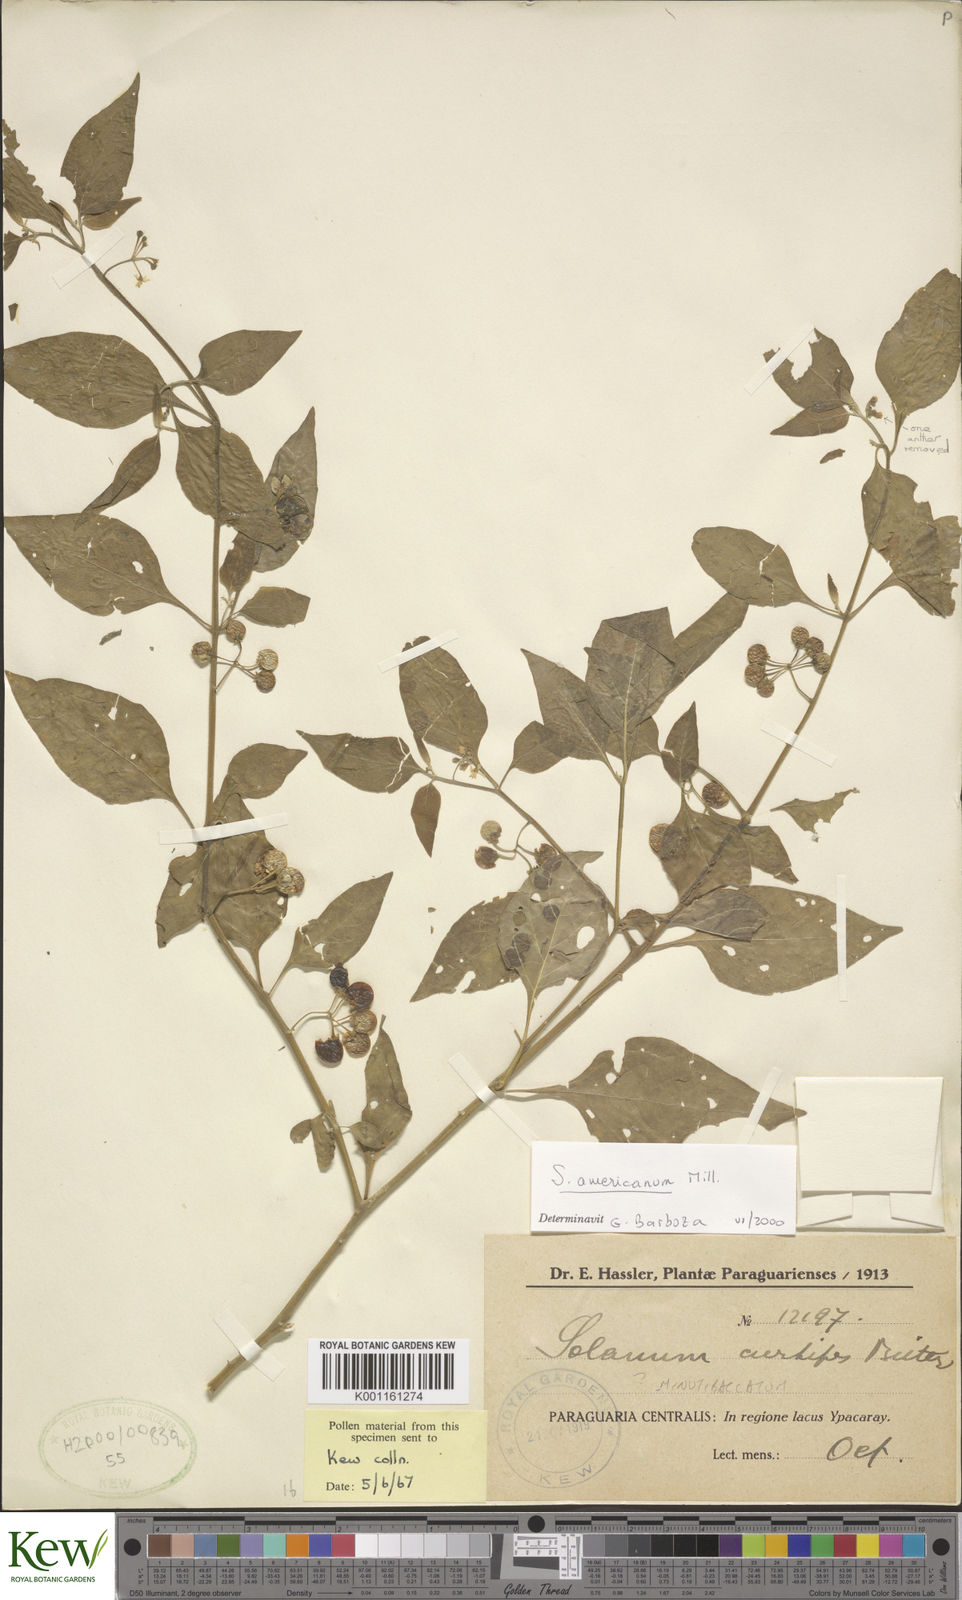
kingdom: Plantae
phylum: Tracheophyta
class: Magnoliopsida
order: Solanales
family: Solanaceae
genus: Solanum
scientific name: Solanum americanum
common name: American black nightshade
